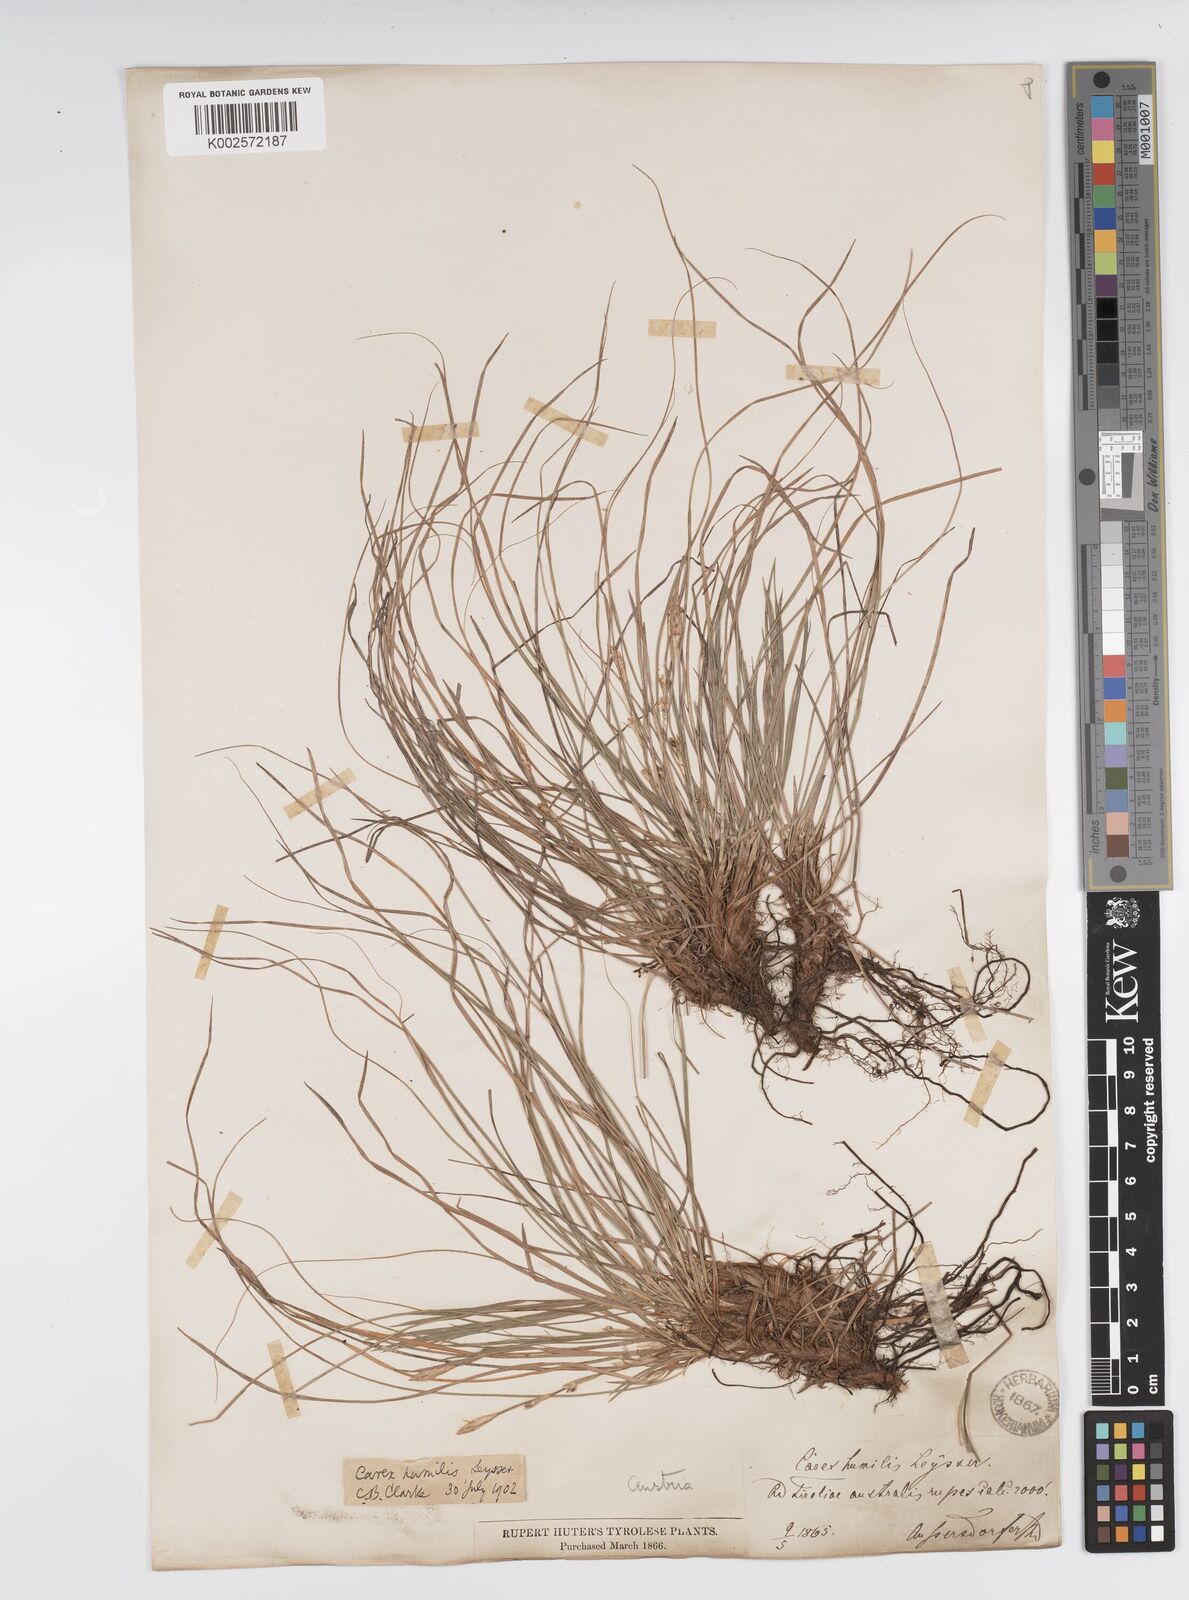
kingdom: Plantae
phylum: Tracheophyta
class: Liliopsida
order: Poales
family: Cyperaceae
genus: Carex
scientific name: Carex humilis
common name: Dwarf sedge
